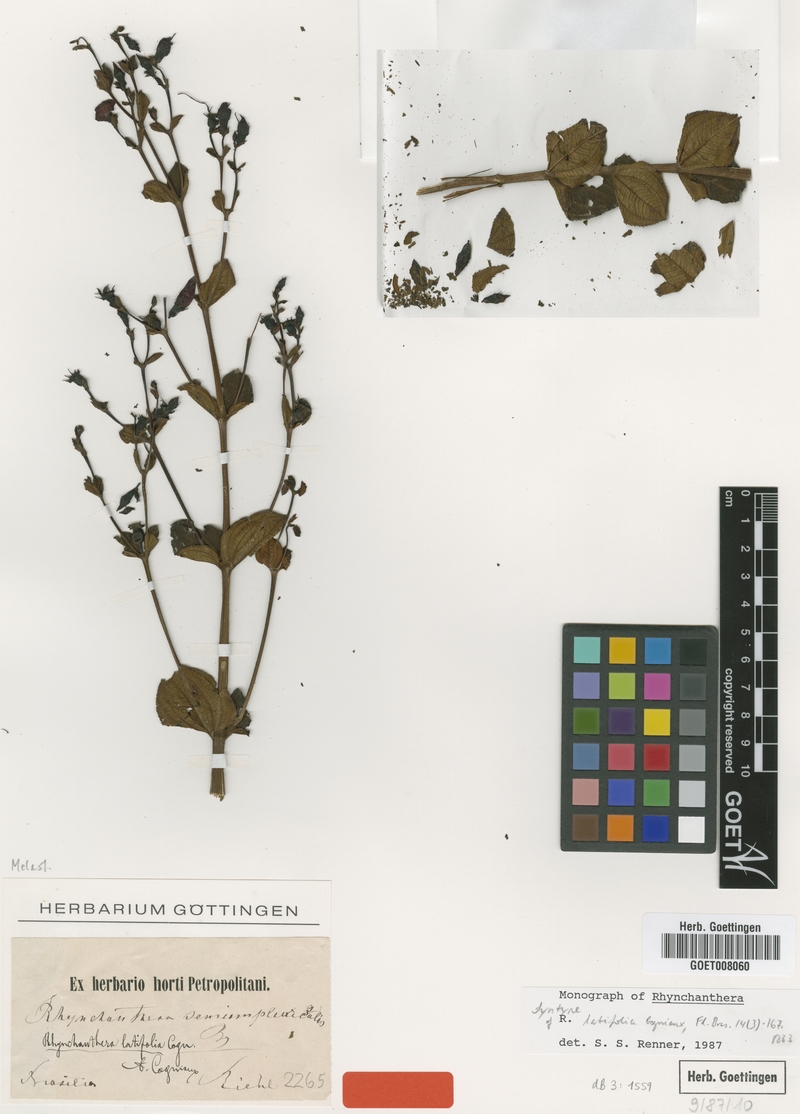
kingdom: Plantae
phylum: Tracheophyta
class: Magnoliopsida
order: Myrtales
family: Melastomataceae
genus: Rhynchanthera
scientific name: Rhynchanthera latifolia
